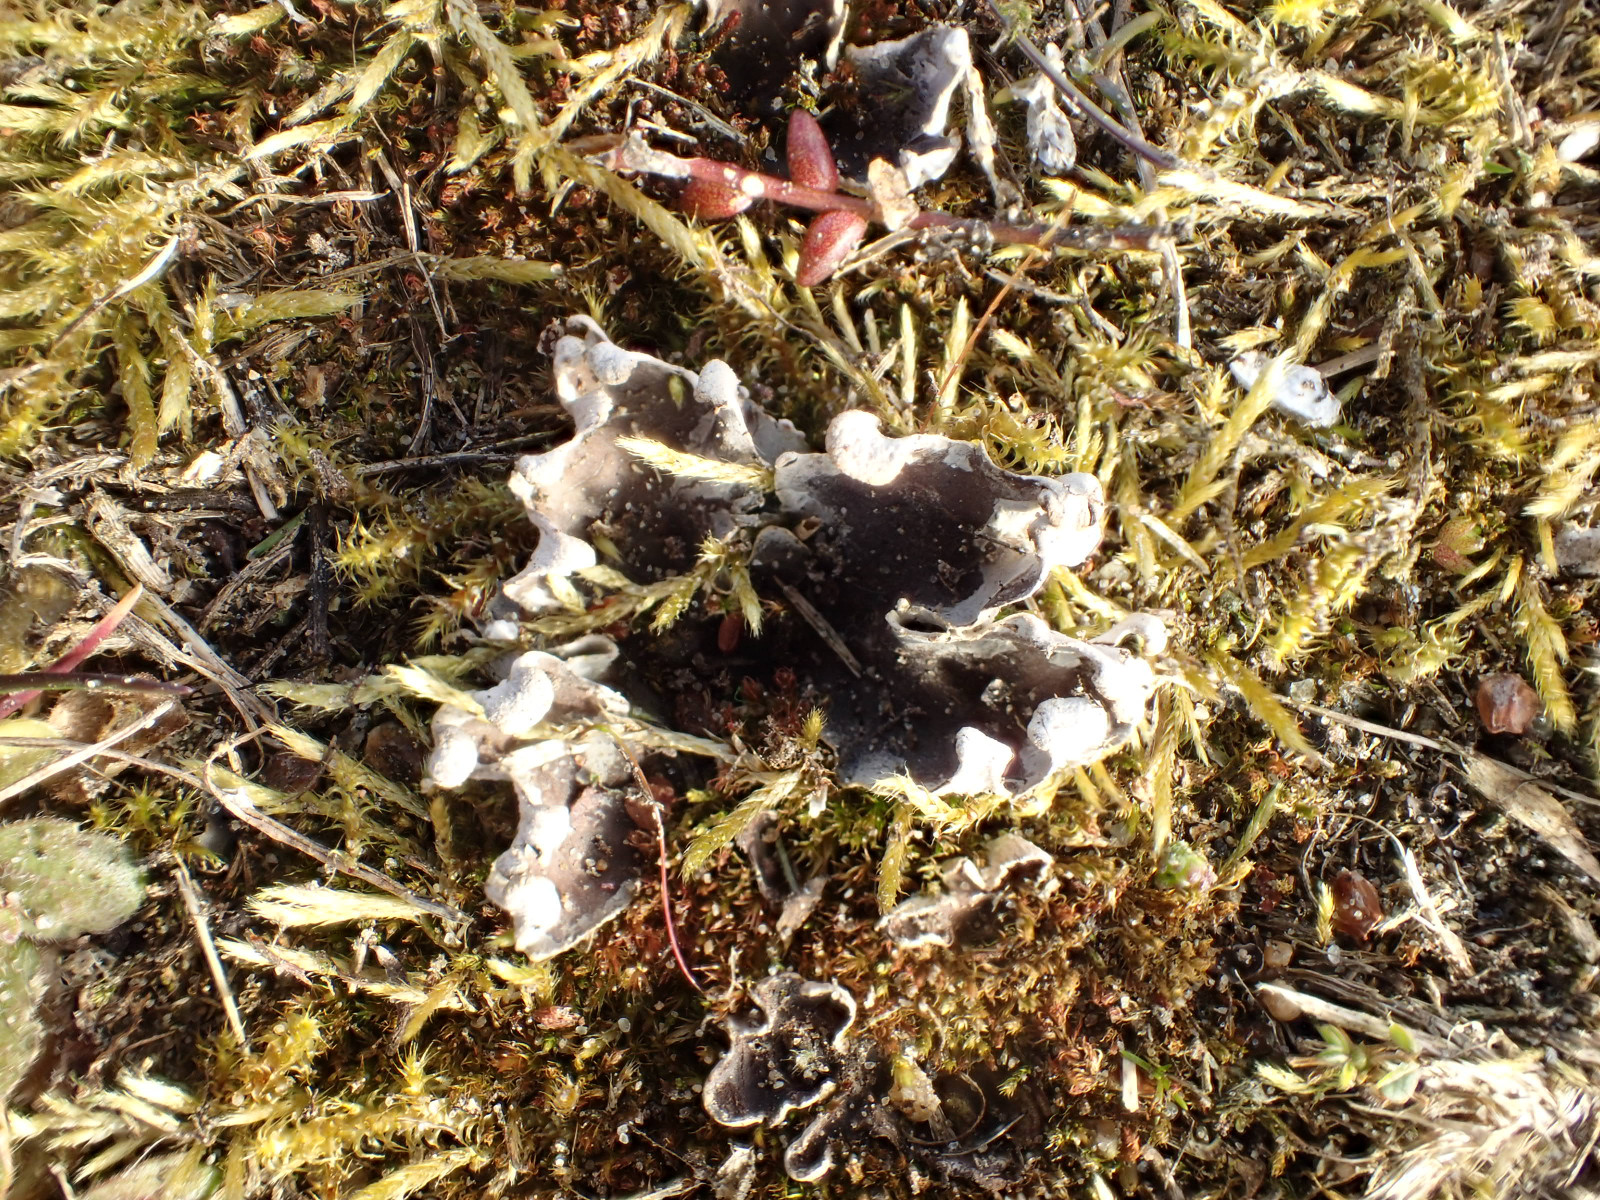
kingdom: Fungi
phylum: Ascomycota
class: Lecanoromycetes
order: Peltigerales
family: Peltigeraceae
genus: Peltigera
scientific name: Peltigera didactyla
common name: liden skjoldlav
